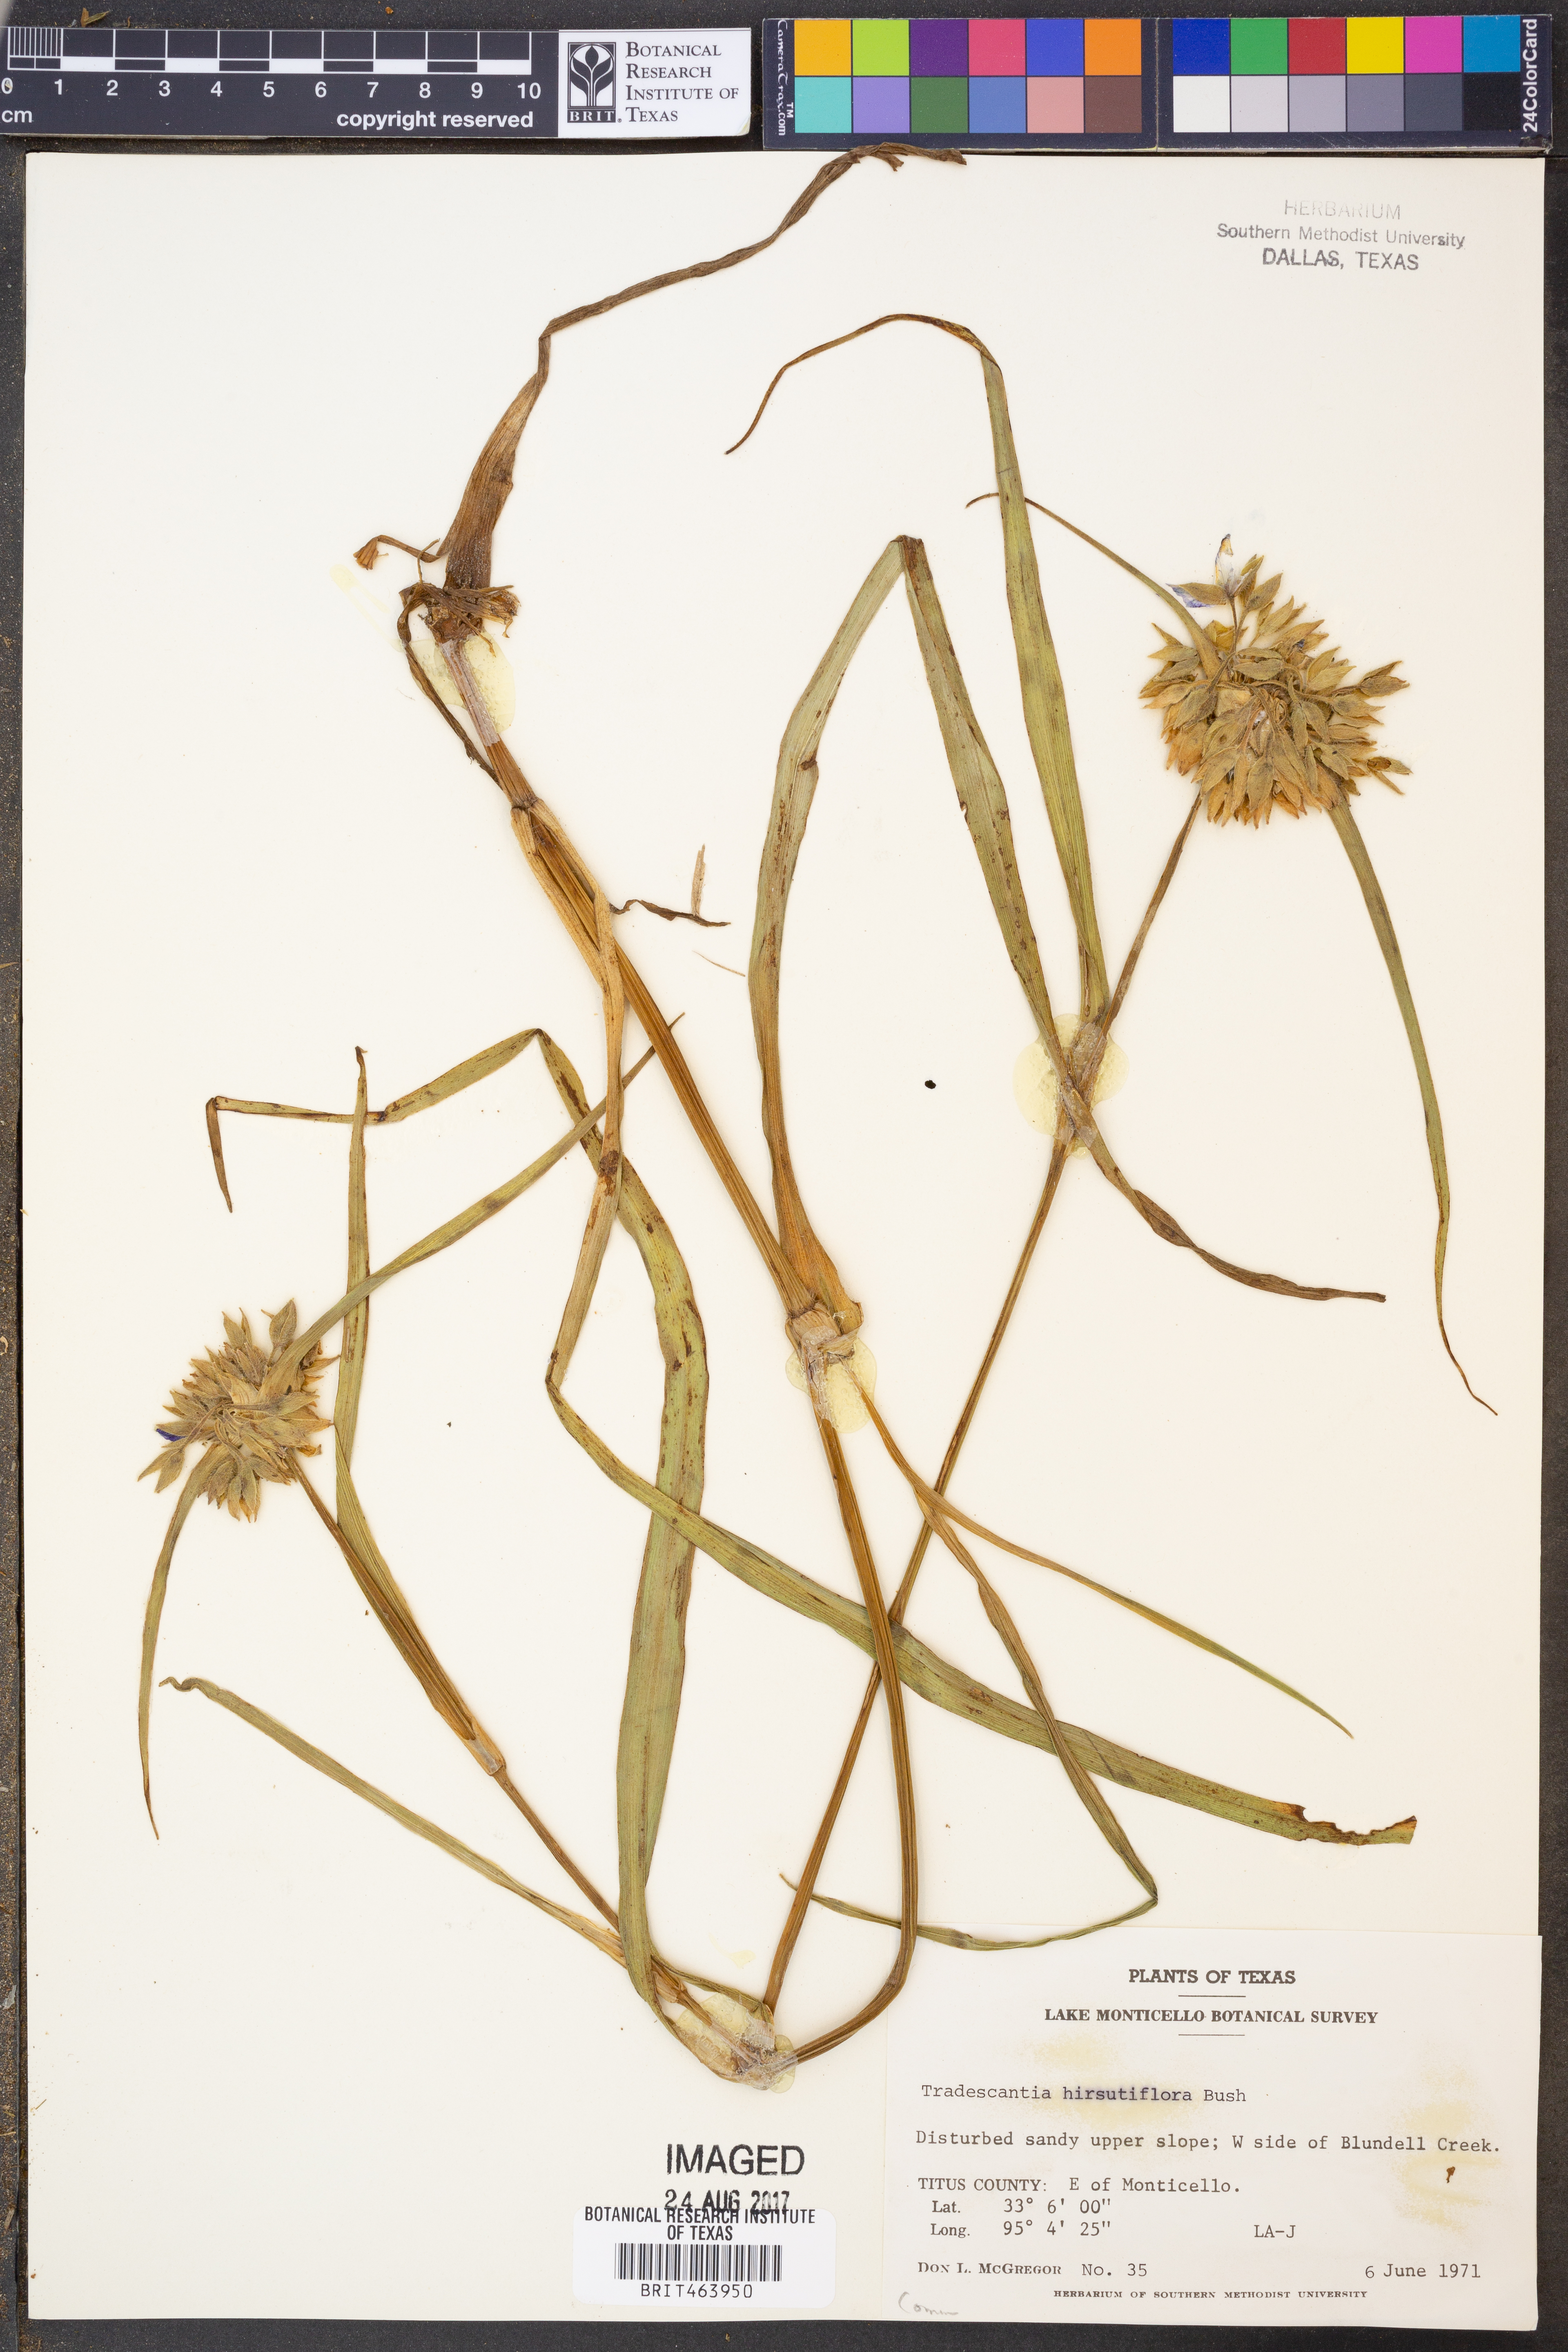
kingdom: Plantae
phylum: Tracheophyta
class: Liliopsida
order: Commelinales
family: Commelinaceae
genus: Tradescantia
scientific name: Tradescantia hirsutiflora
